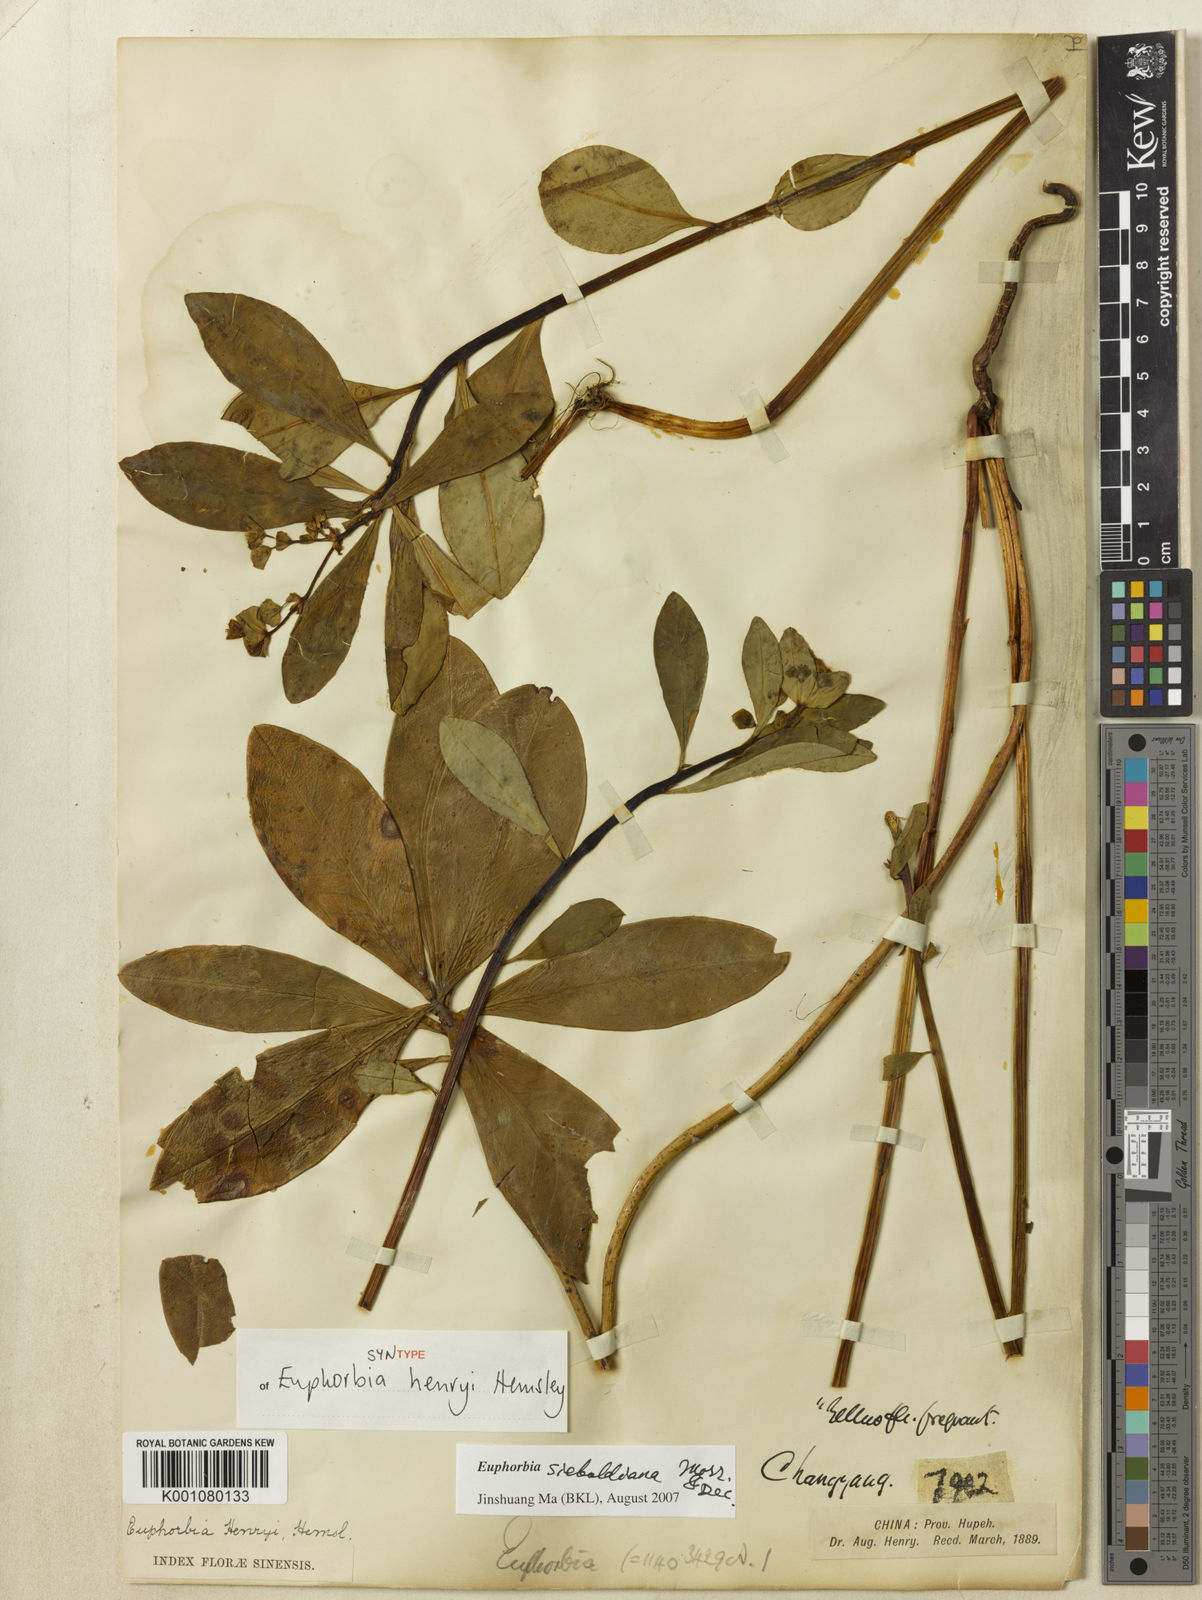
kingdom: Plantae
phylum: Tracheophyta
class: Magnoliopsida
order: Malpighiales
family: Euphorbiaceae
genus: Euphorbia
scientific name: Euphorbia sieboldiana
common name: Siebold's spurge
